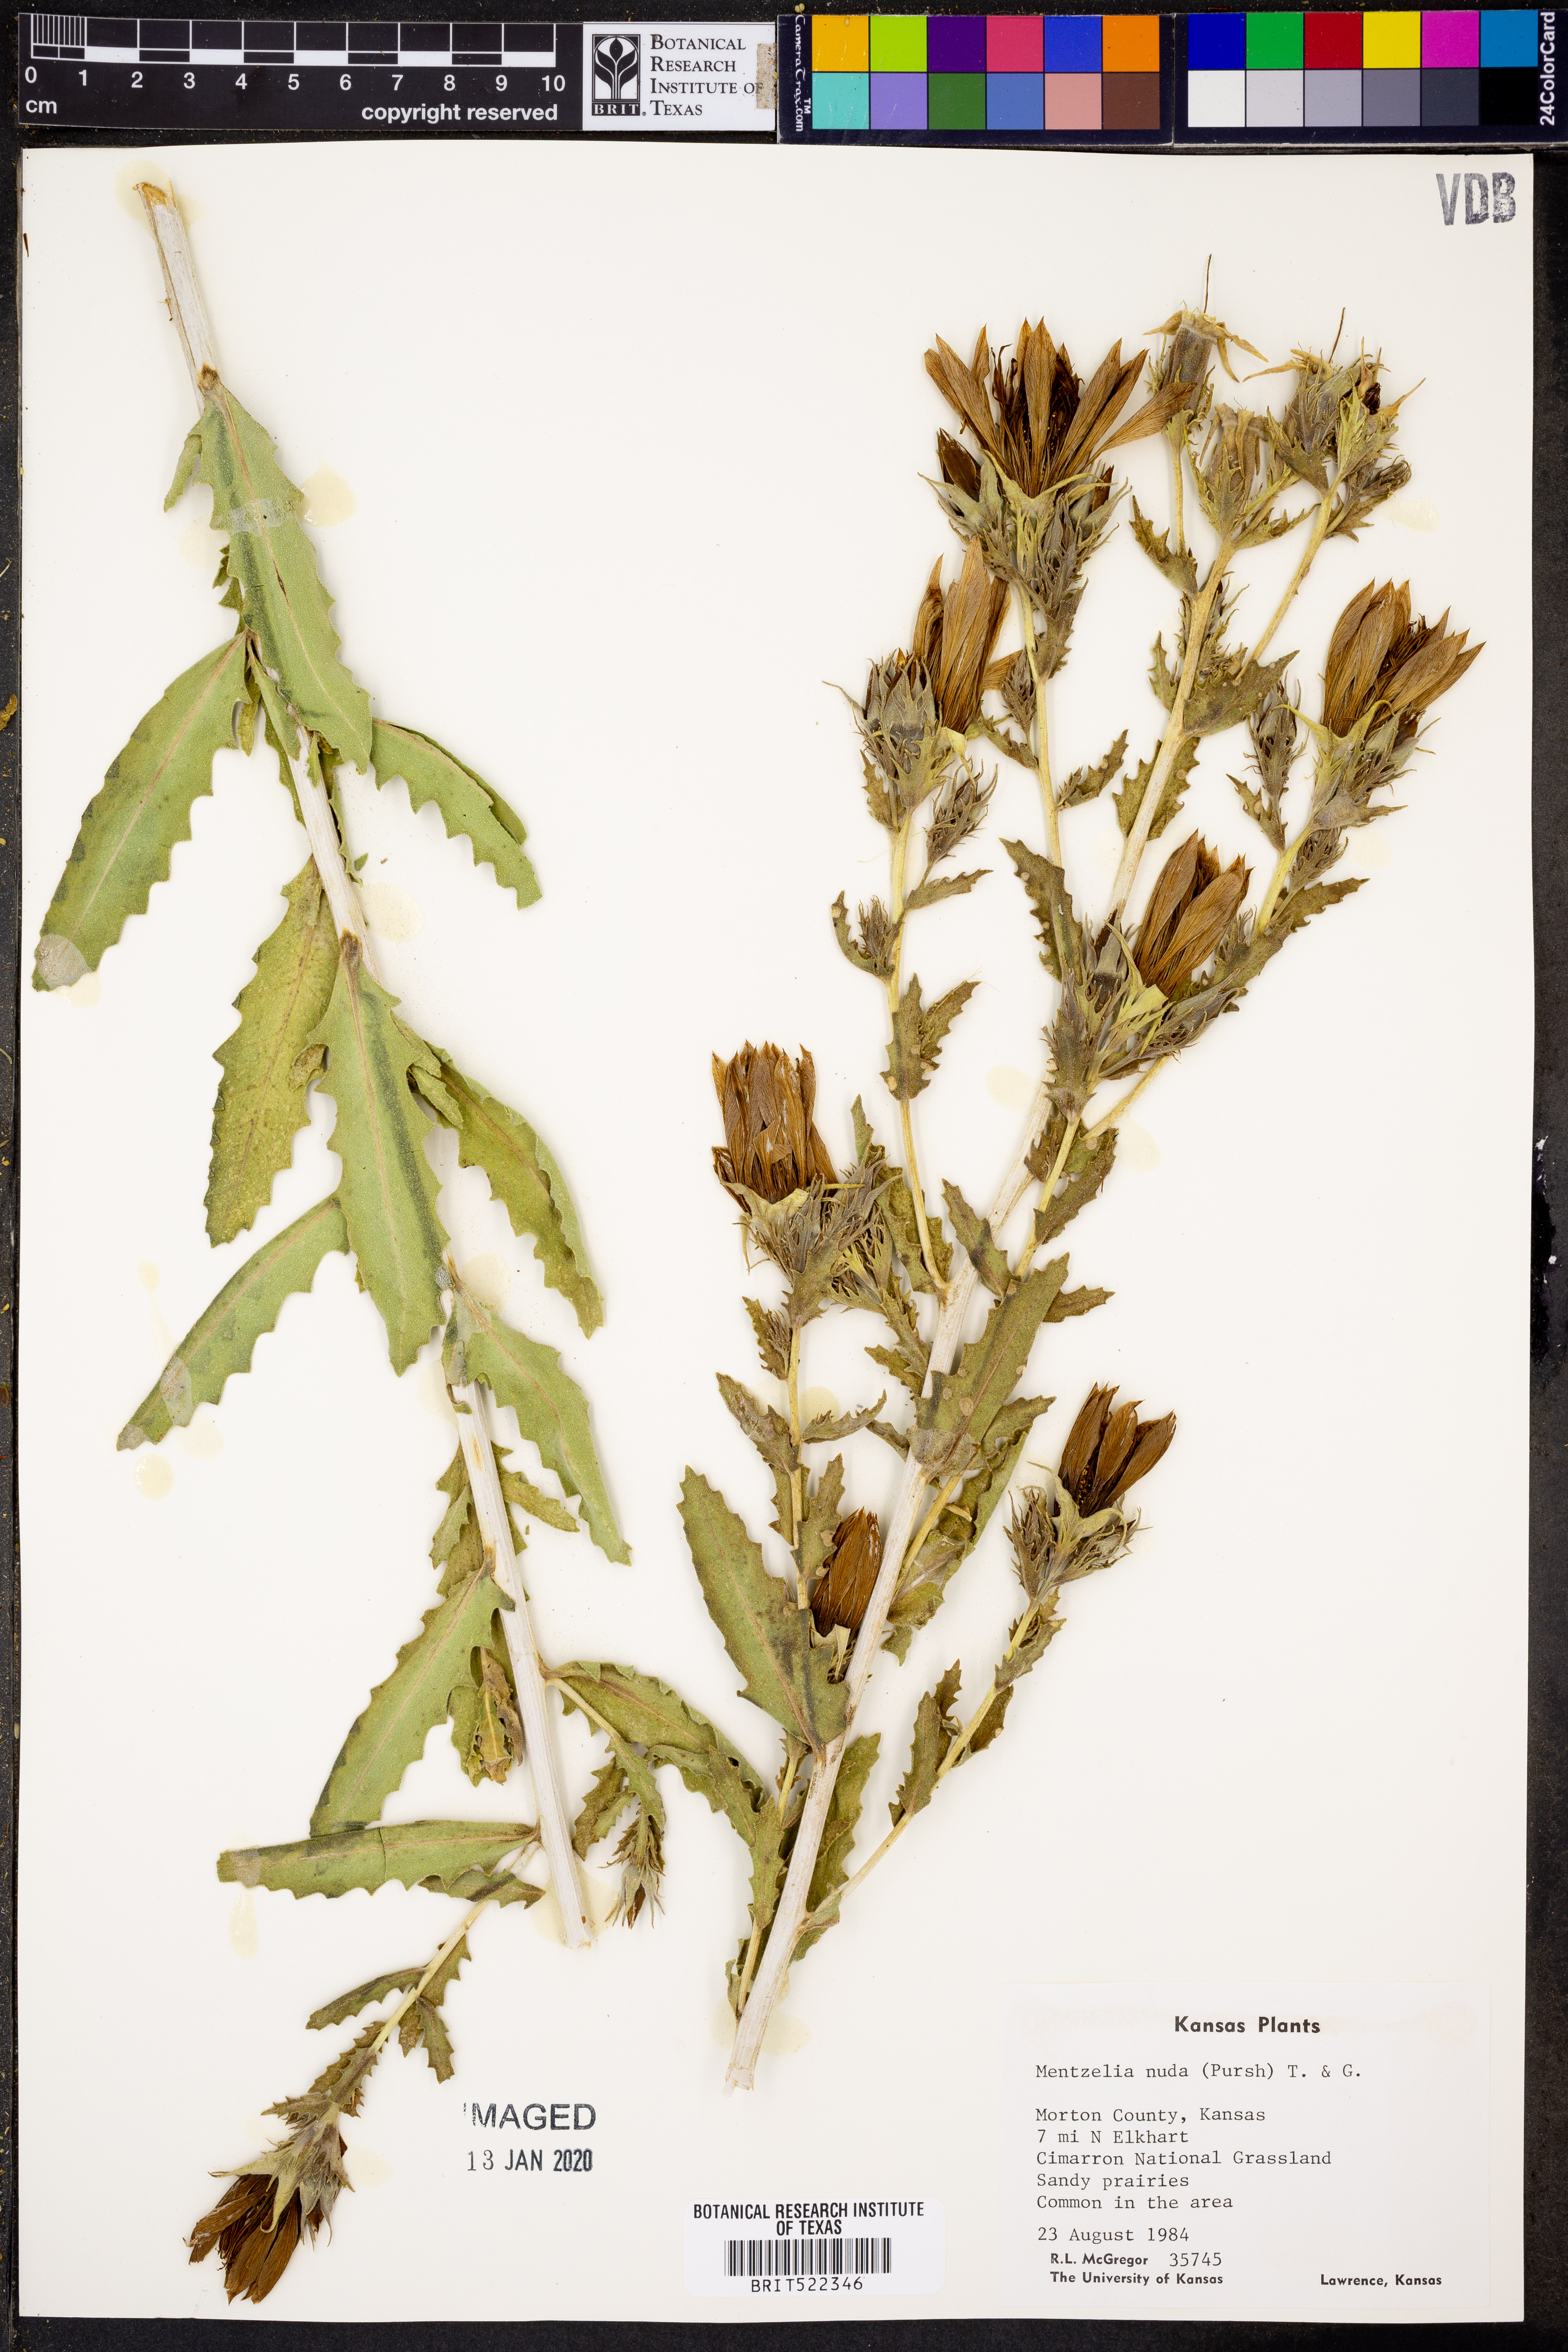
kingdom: Plantae
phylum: Tracheophyta
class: Magnoliopsida
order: Cornales
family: Loasaceae
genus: Mentzelia
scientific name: Mentzelia nuda
